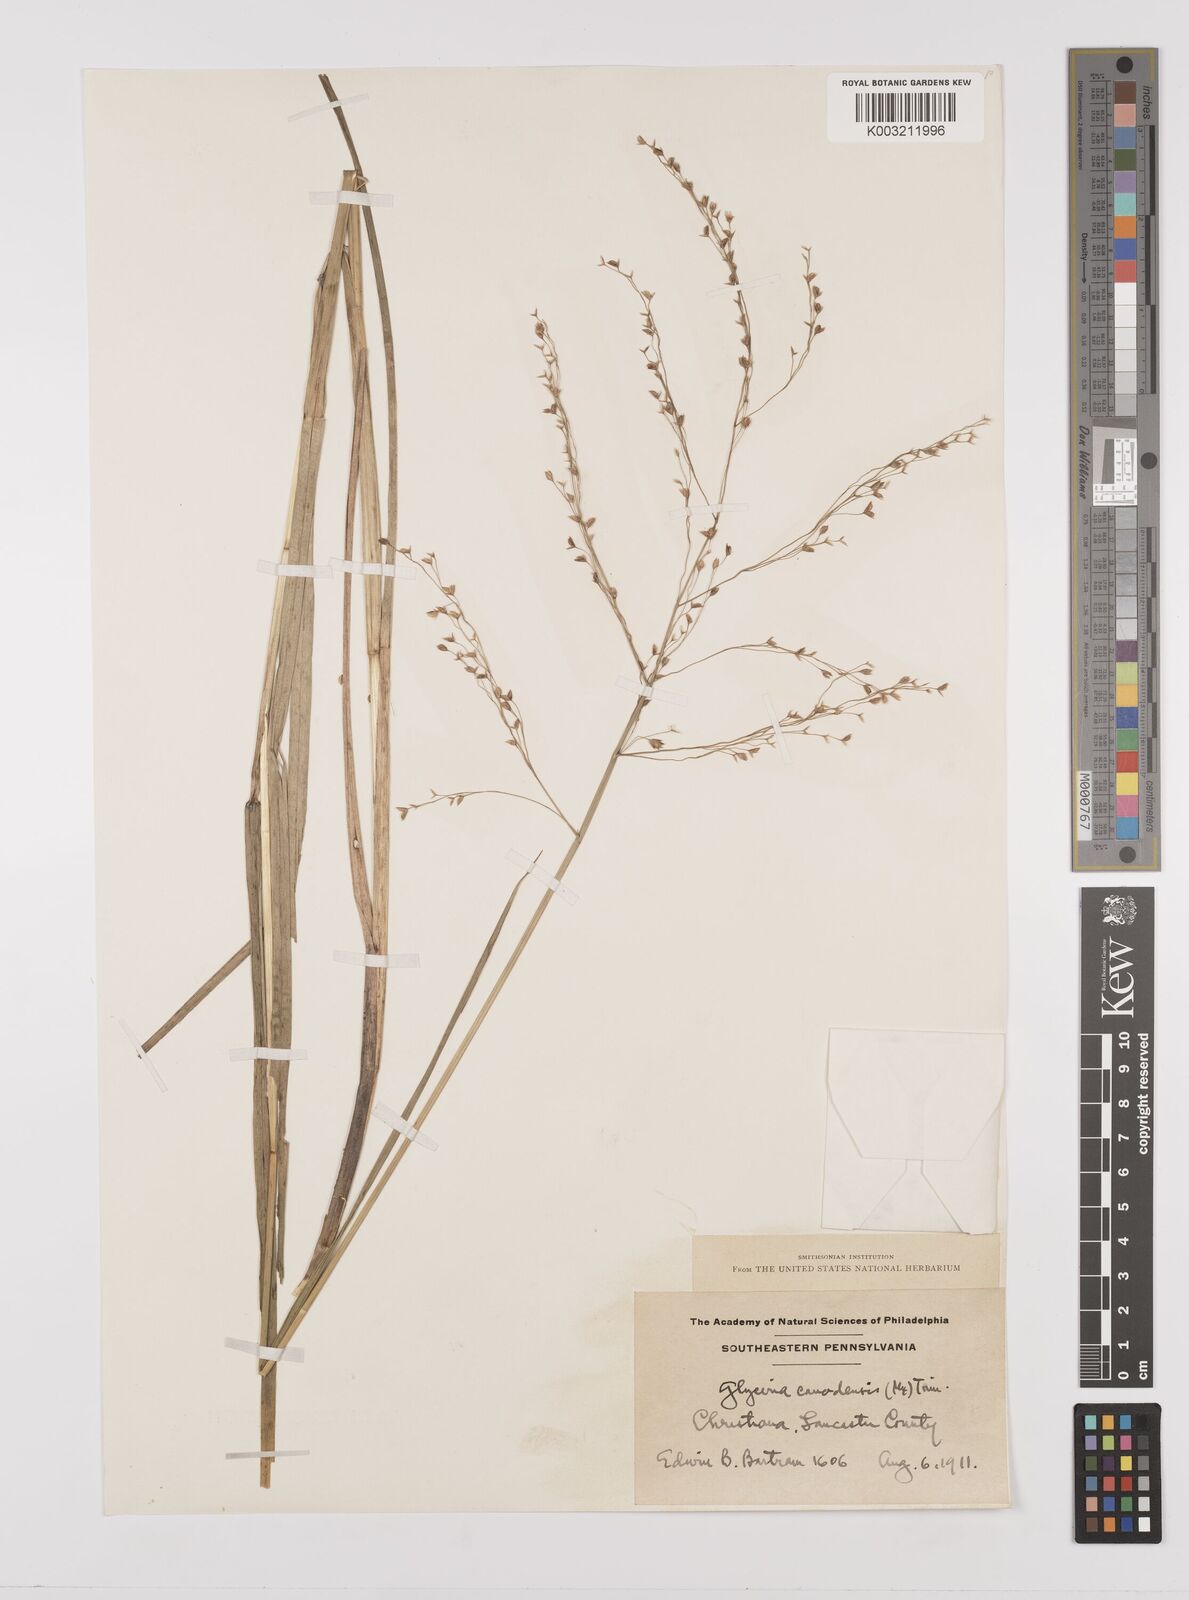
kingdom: Plantae
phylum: Tracheophyta
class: Liliopsida
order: Poales
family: Poaceae
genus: Glyceria
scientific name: Glyceria canadensis
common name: Canada mannagrass
